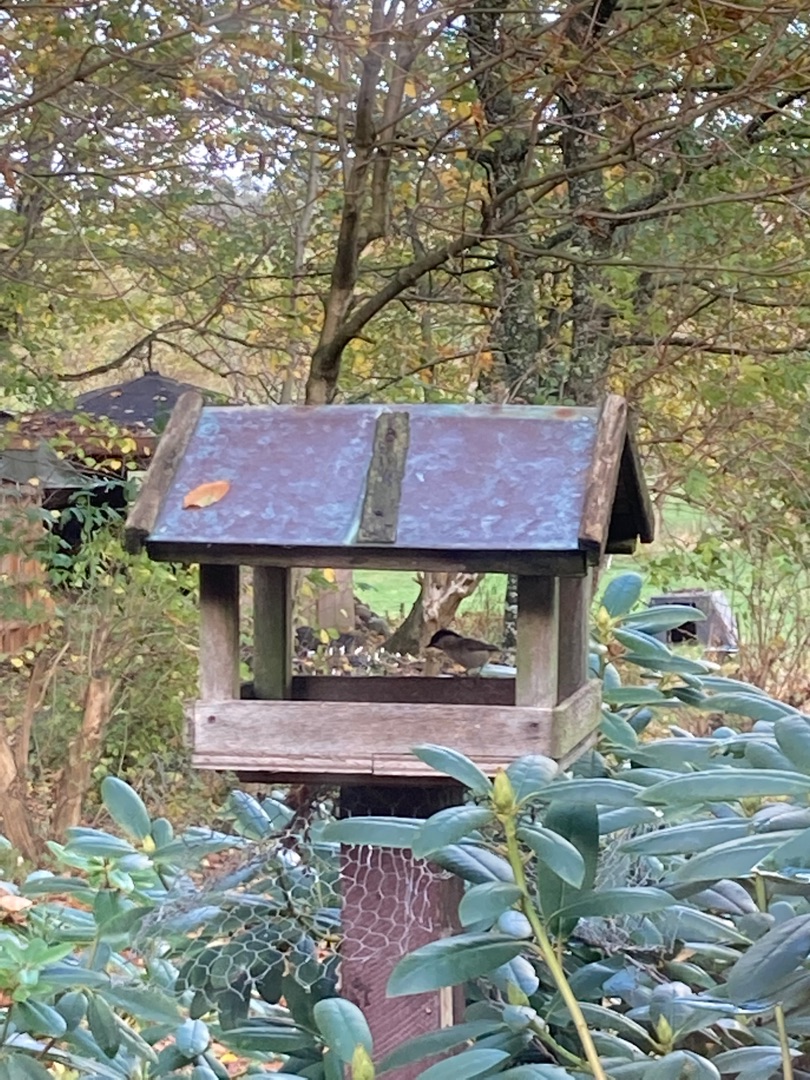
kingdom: Animalia
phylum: Chordata
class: Aves
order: Passeriformes
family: Paridae
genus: Poecile
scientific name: Poecile palustris
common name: Sumpmejse
